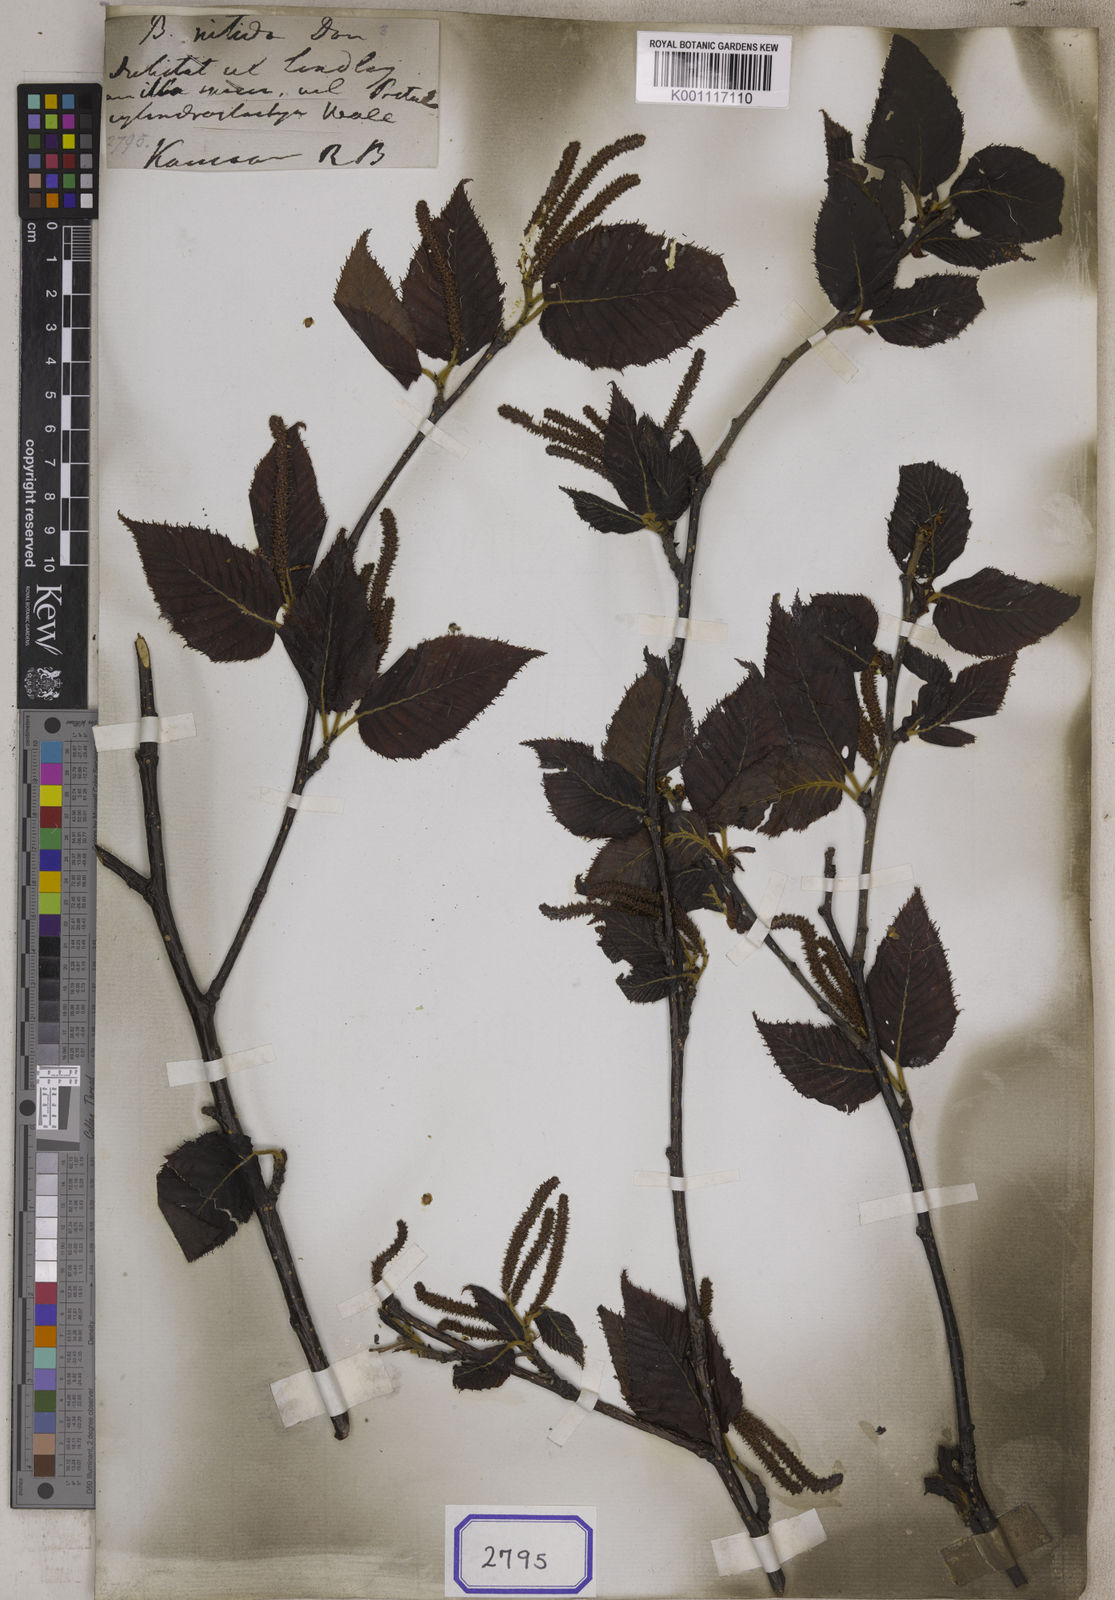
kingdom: Plantae
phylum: Tracheophyta
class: Magnoliopsida
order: Fagales
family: Betulaceae
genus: Betula
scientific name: Betula alnoides
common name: Indian birch
